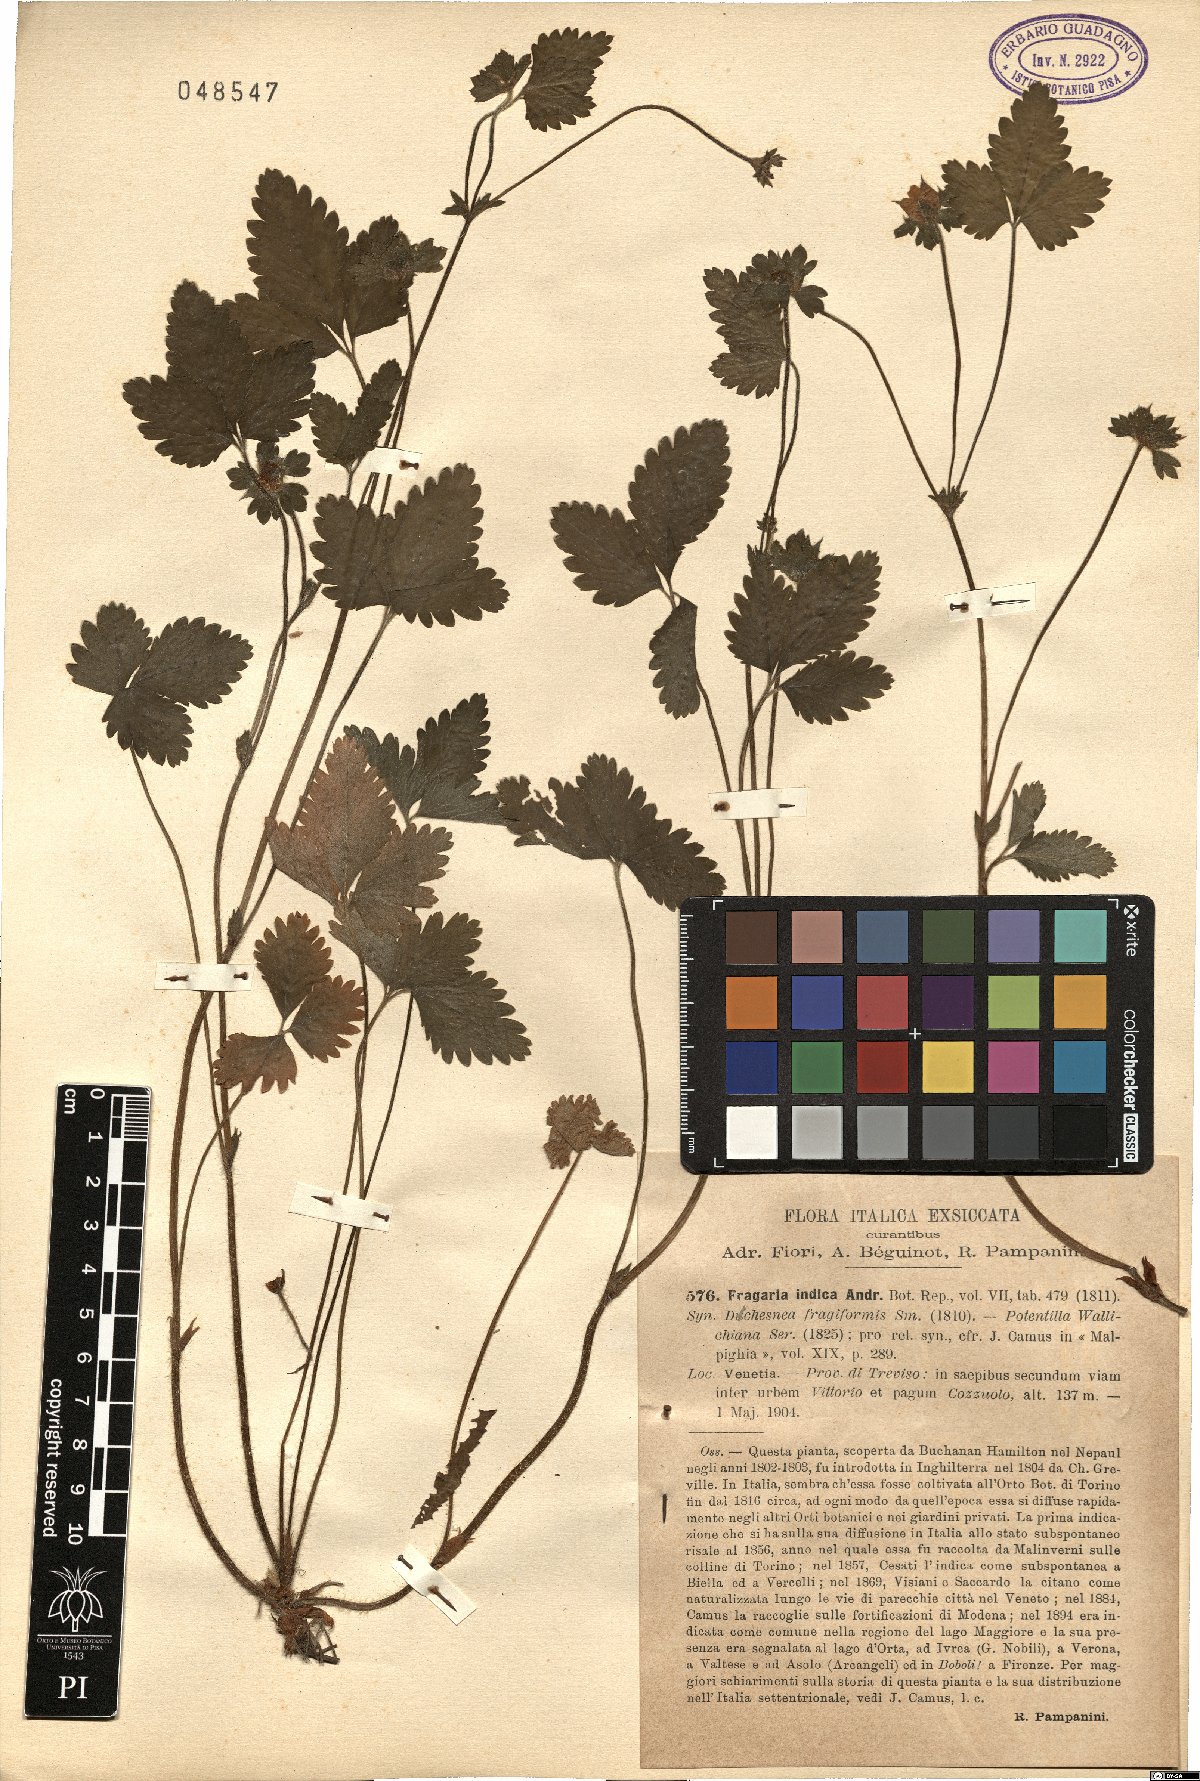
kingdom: Plantae
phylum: Tracheophyta
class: Magnoliopsida
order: Rosales
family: Rosaceae
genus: Potentilla
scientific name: Potentilla indica
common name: Yellow-flowered strawberry
